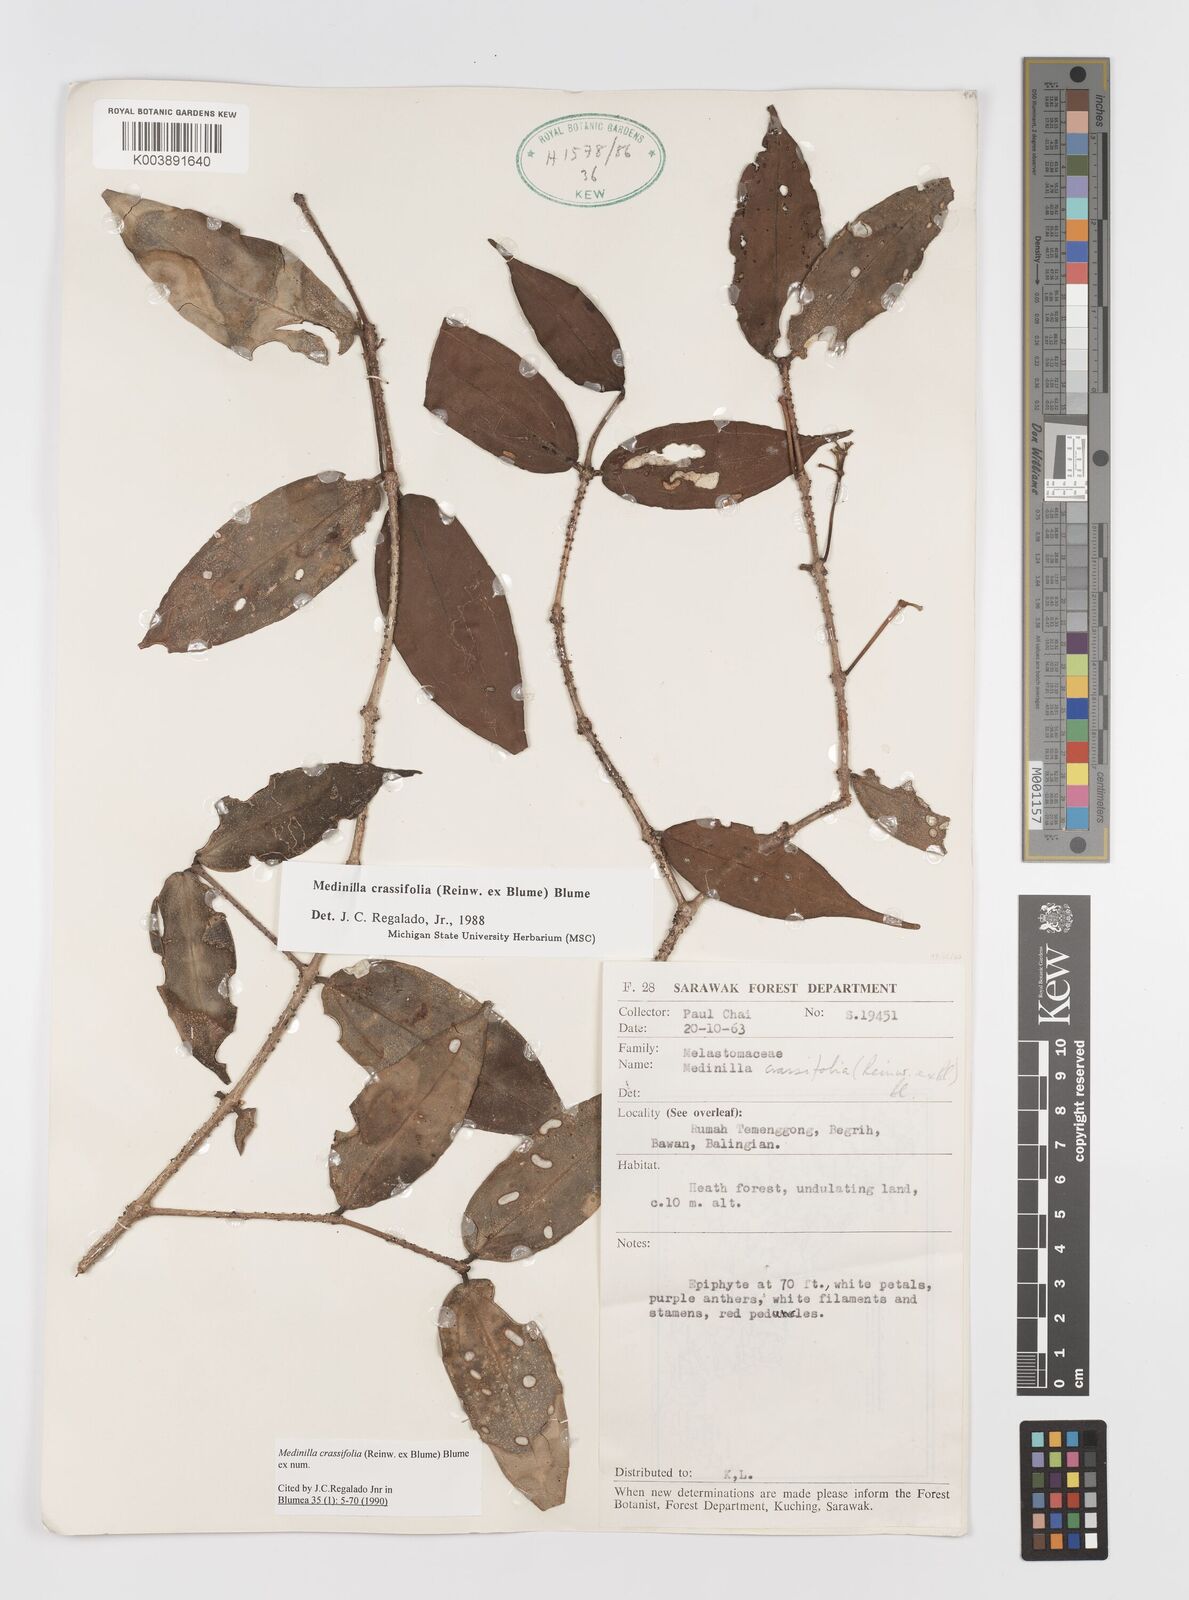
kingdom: Plantae
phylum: Tracheophyta
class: Magnoliopsida
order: Myrtales
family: Melastomataceae
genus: Medinilla
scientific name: Medinilla crassifolia
